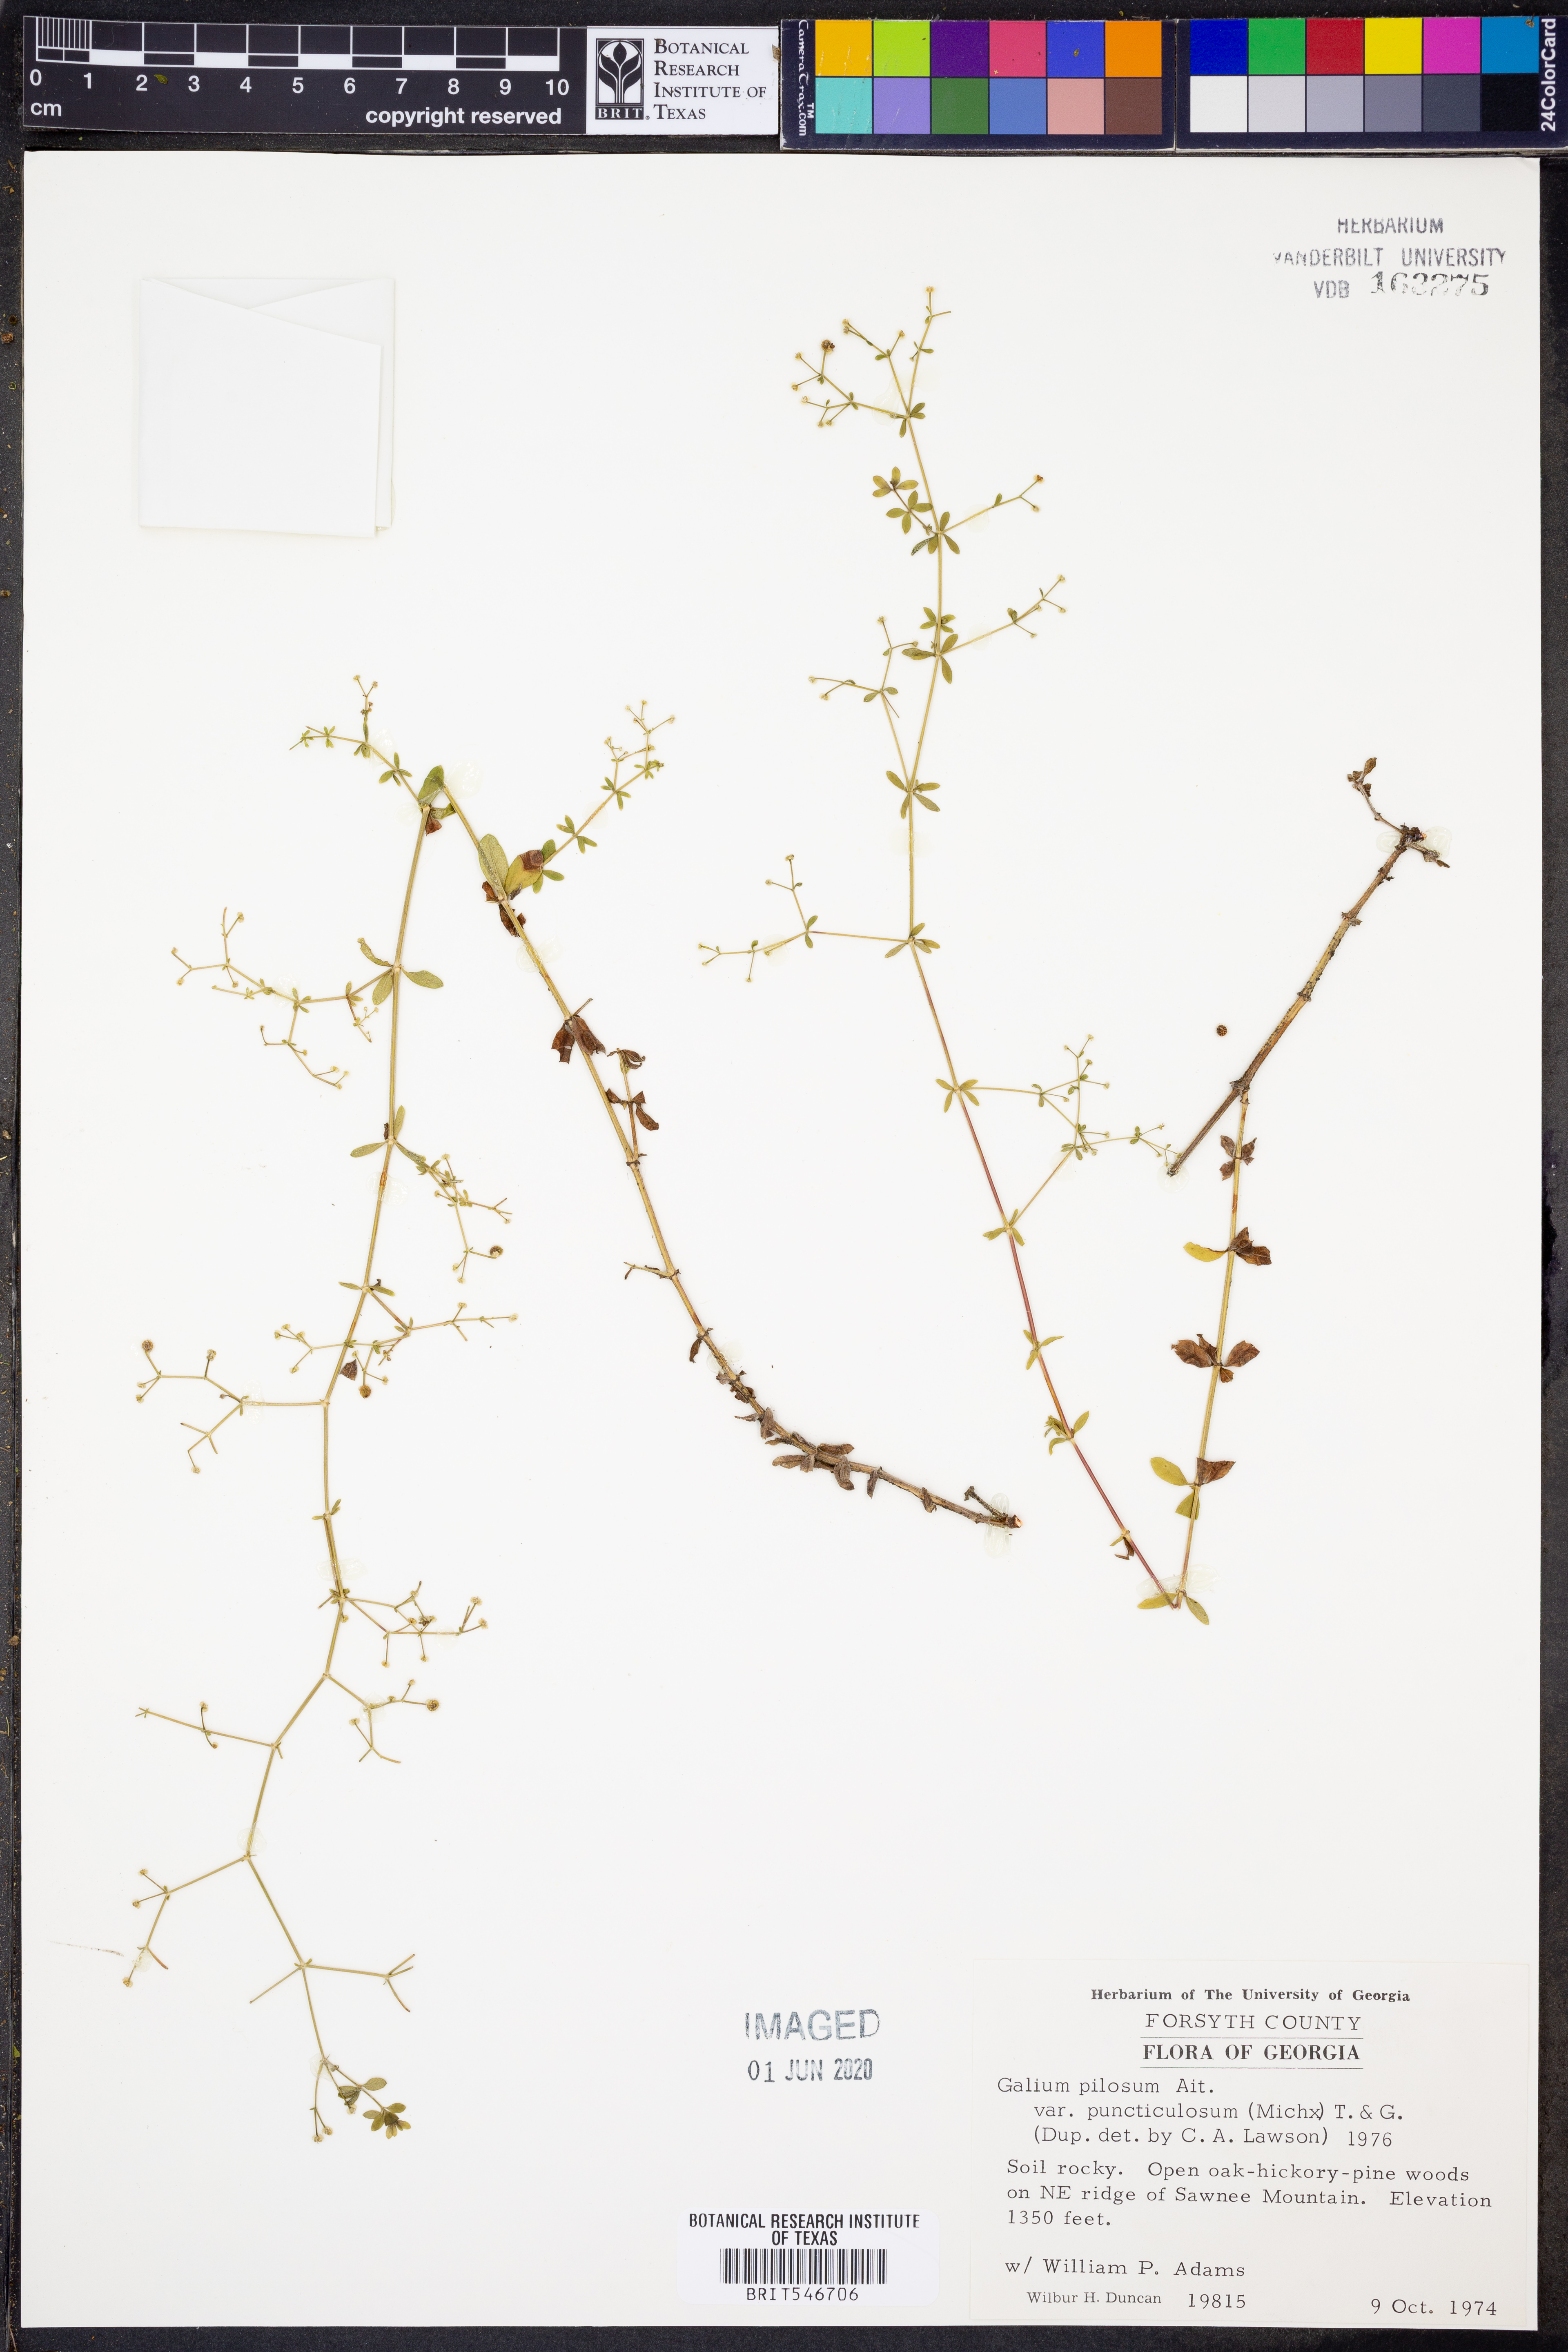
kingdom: Plantae
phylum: Tracheophyta
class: Magnoliopsida
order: Gentianales
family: Rubiaceae
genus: Galium
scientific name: Galium pilosum
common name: Hairy bedstraw
